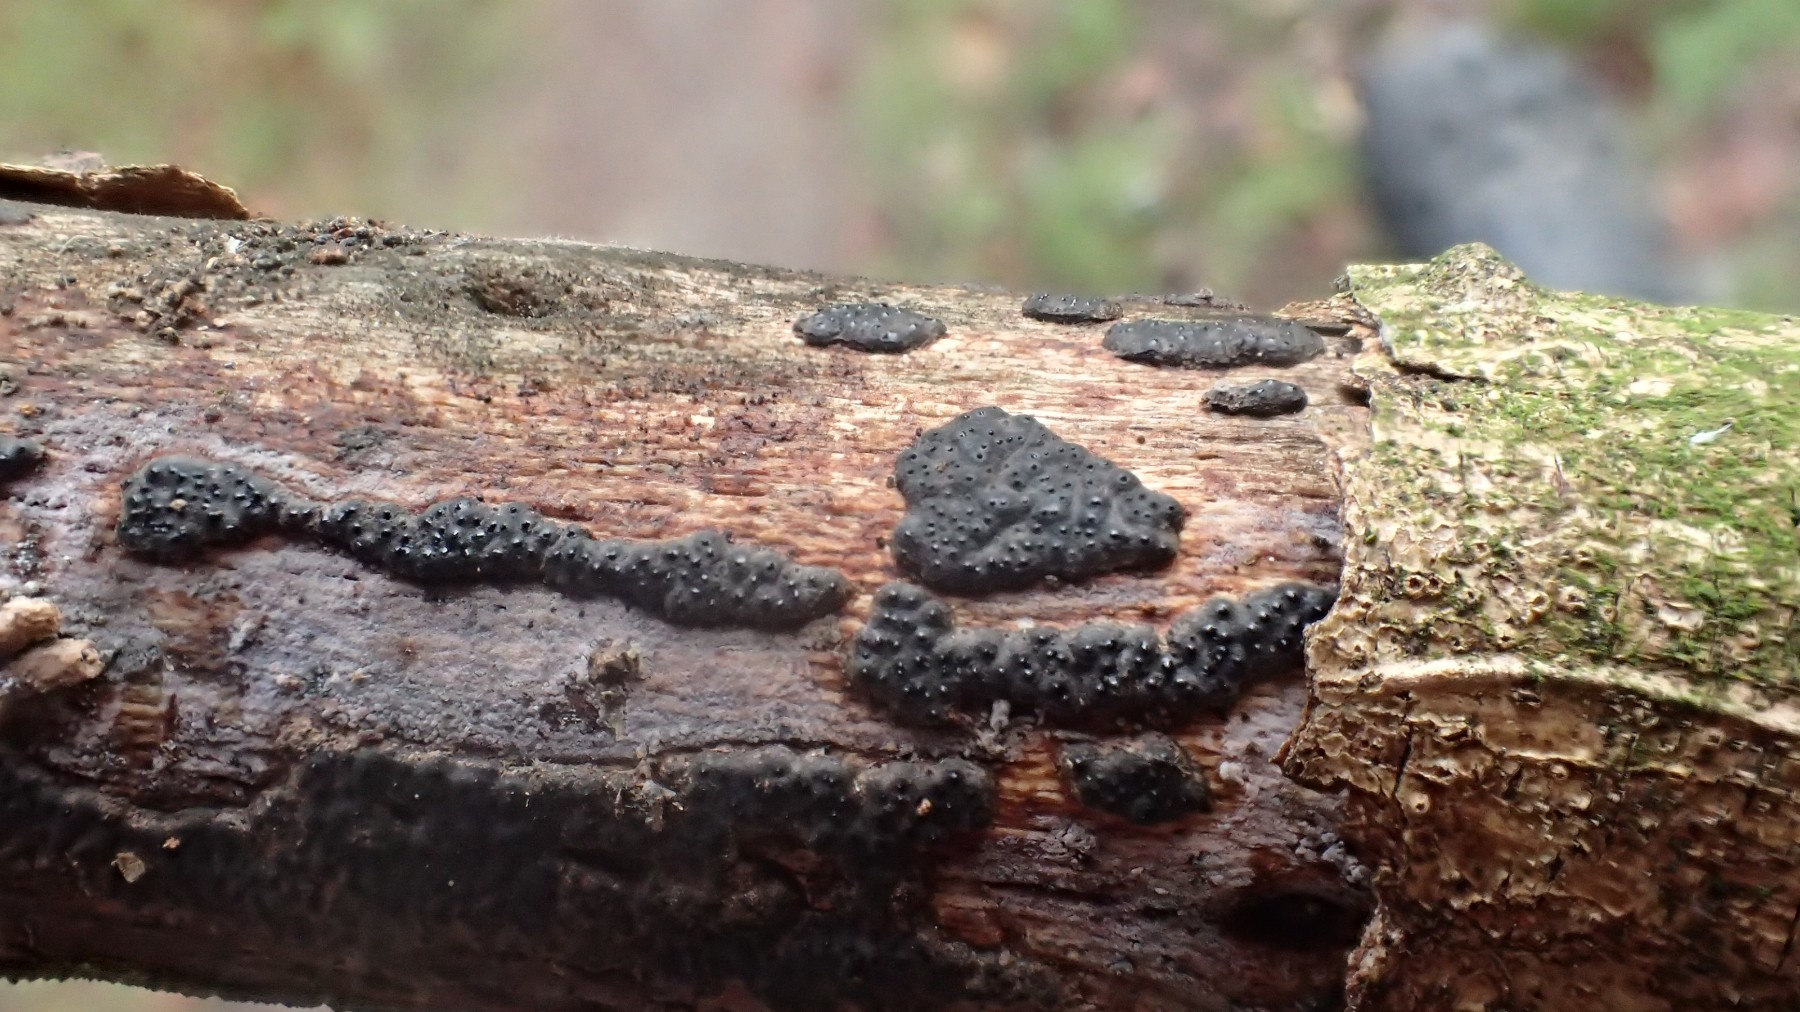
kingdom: Fungi
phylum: Ascomycota
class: Sordariomycetes
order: Xylariales
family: Xylariaceae
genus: Nemania
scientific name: Nemania
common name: kuldyne
